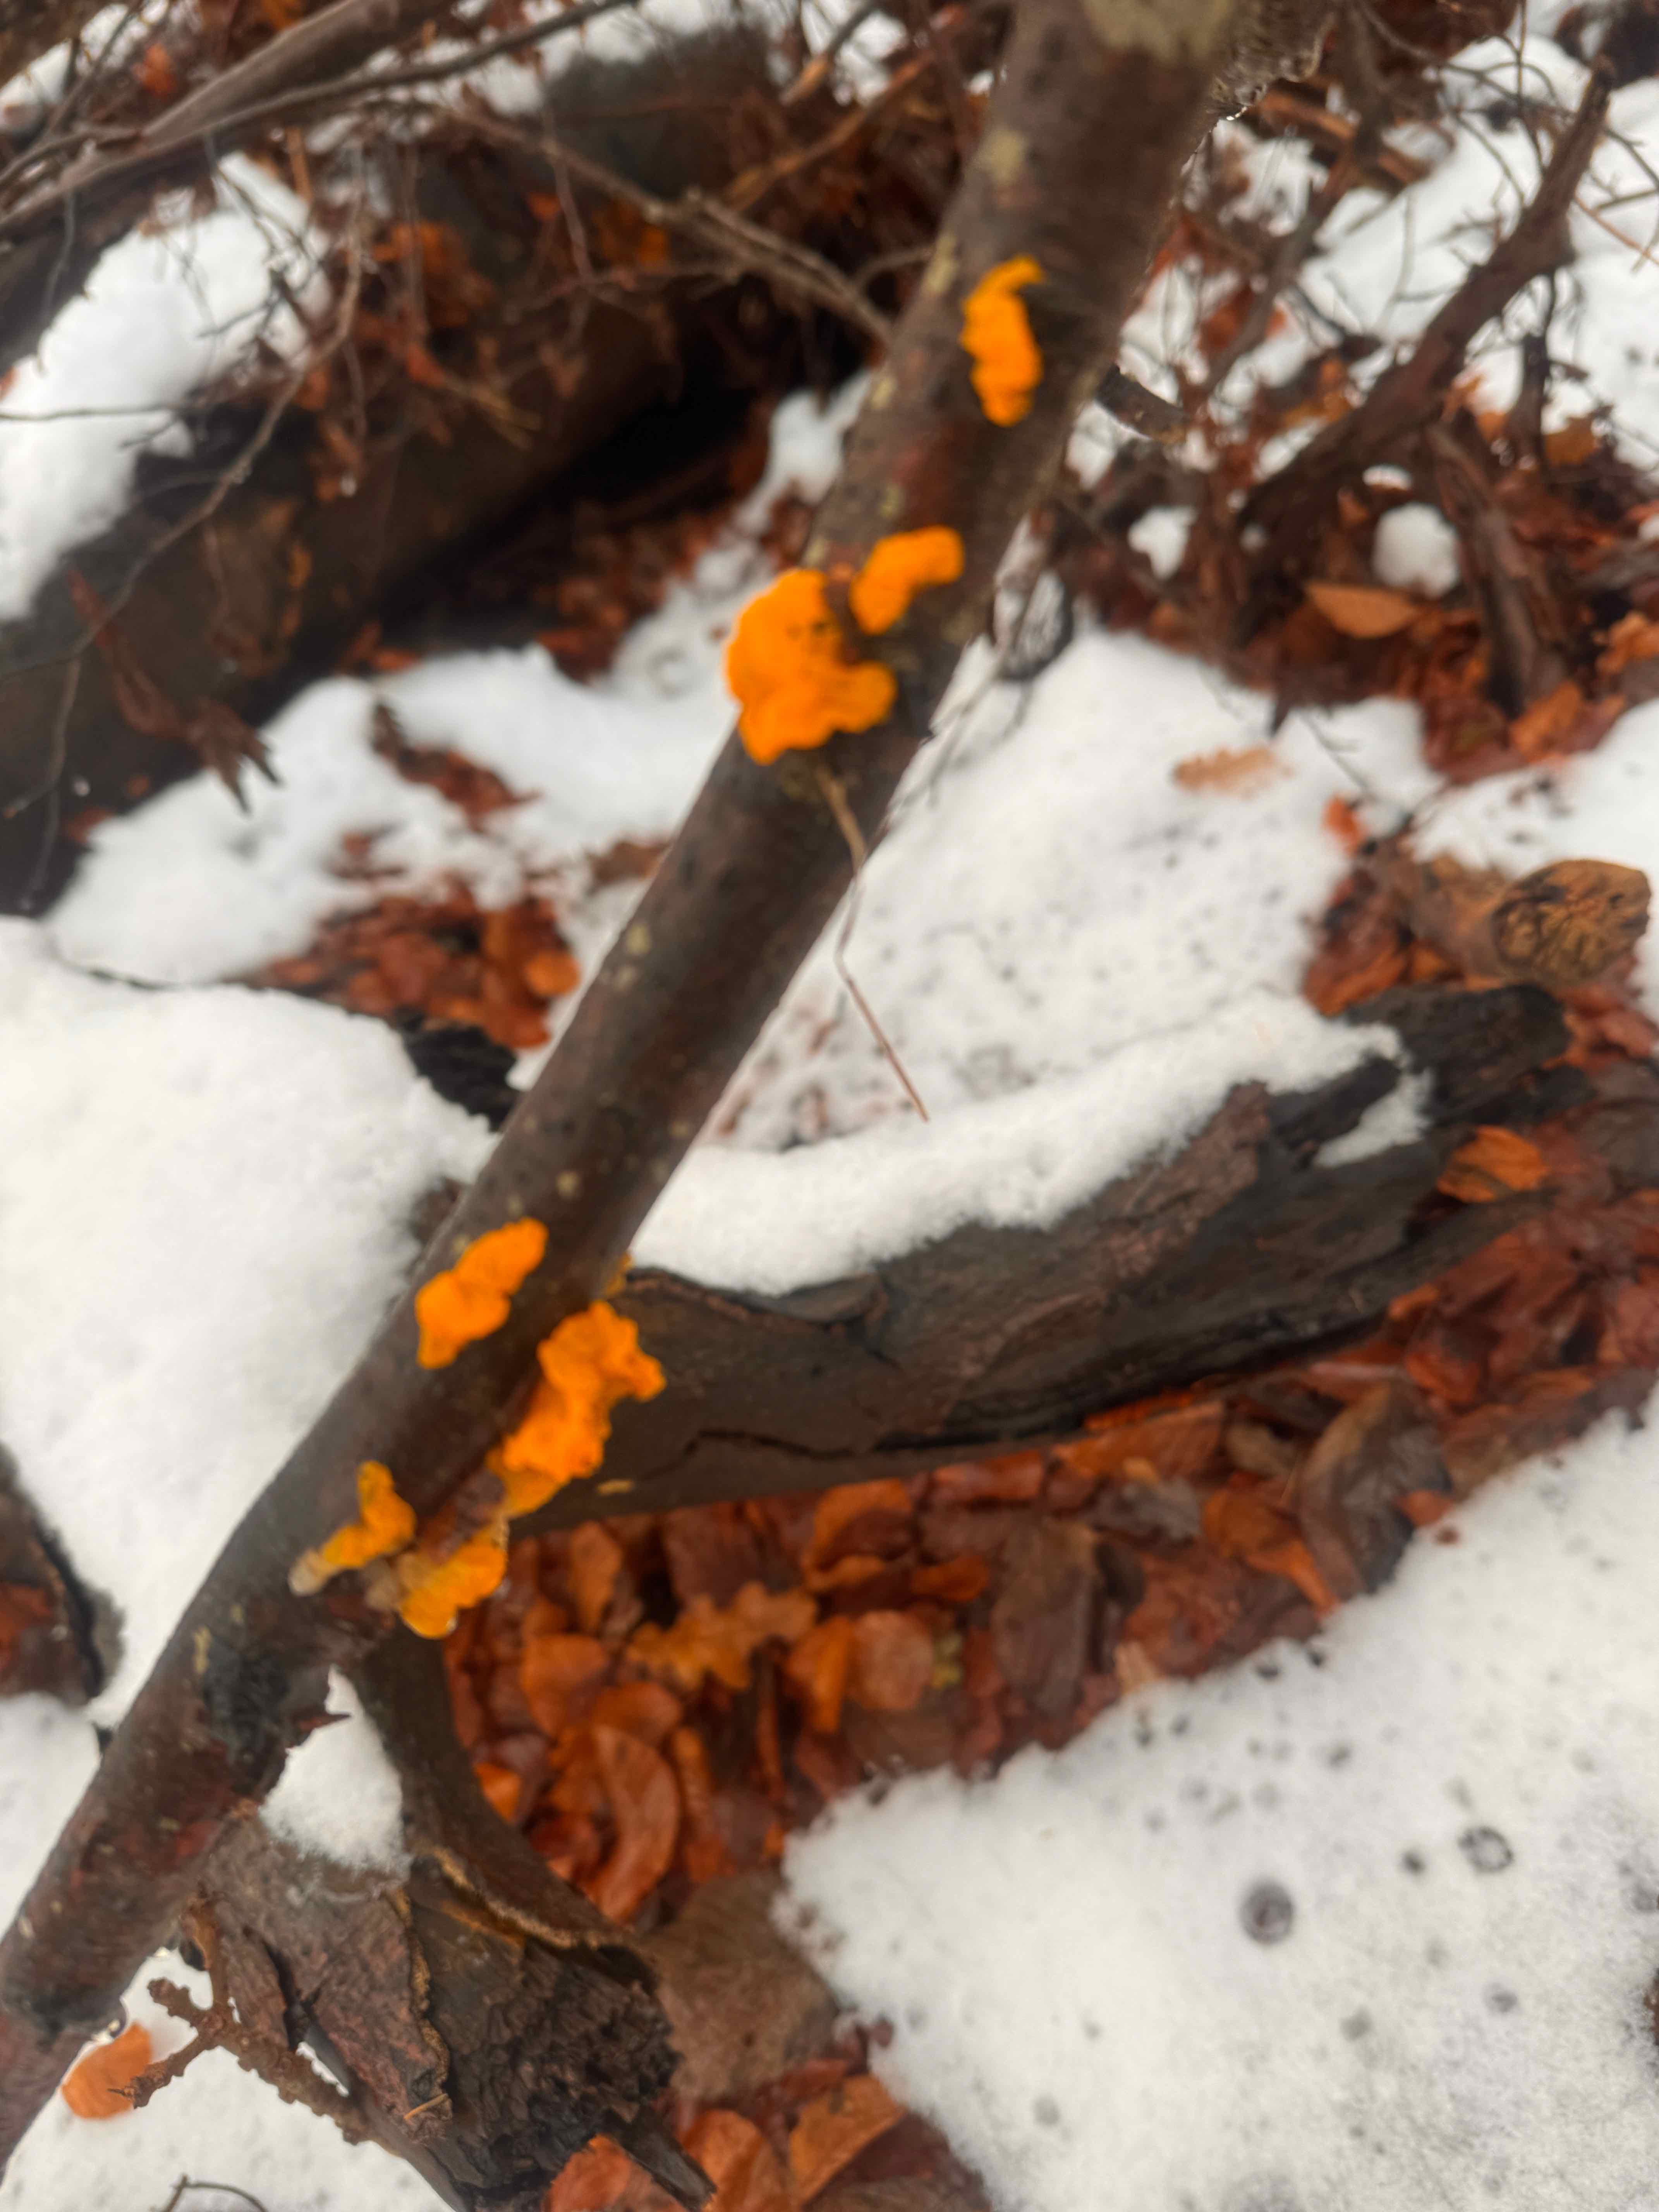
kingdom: Fungi
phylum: Basidiomycota
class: Tremellomycetes
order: Tremellales
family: Tremellaceae
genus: Tremella
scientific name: Tremella mesenterica
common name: gul bævresvamp
